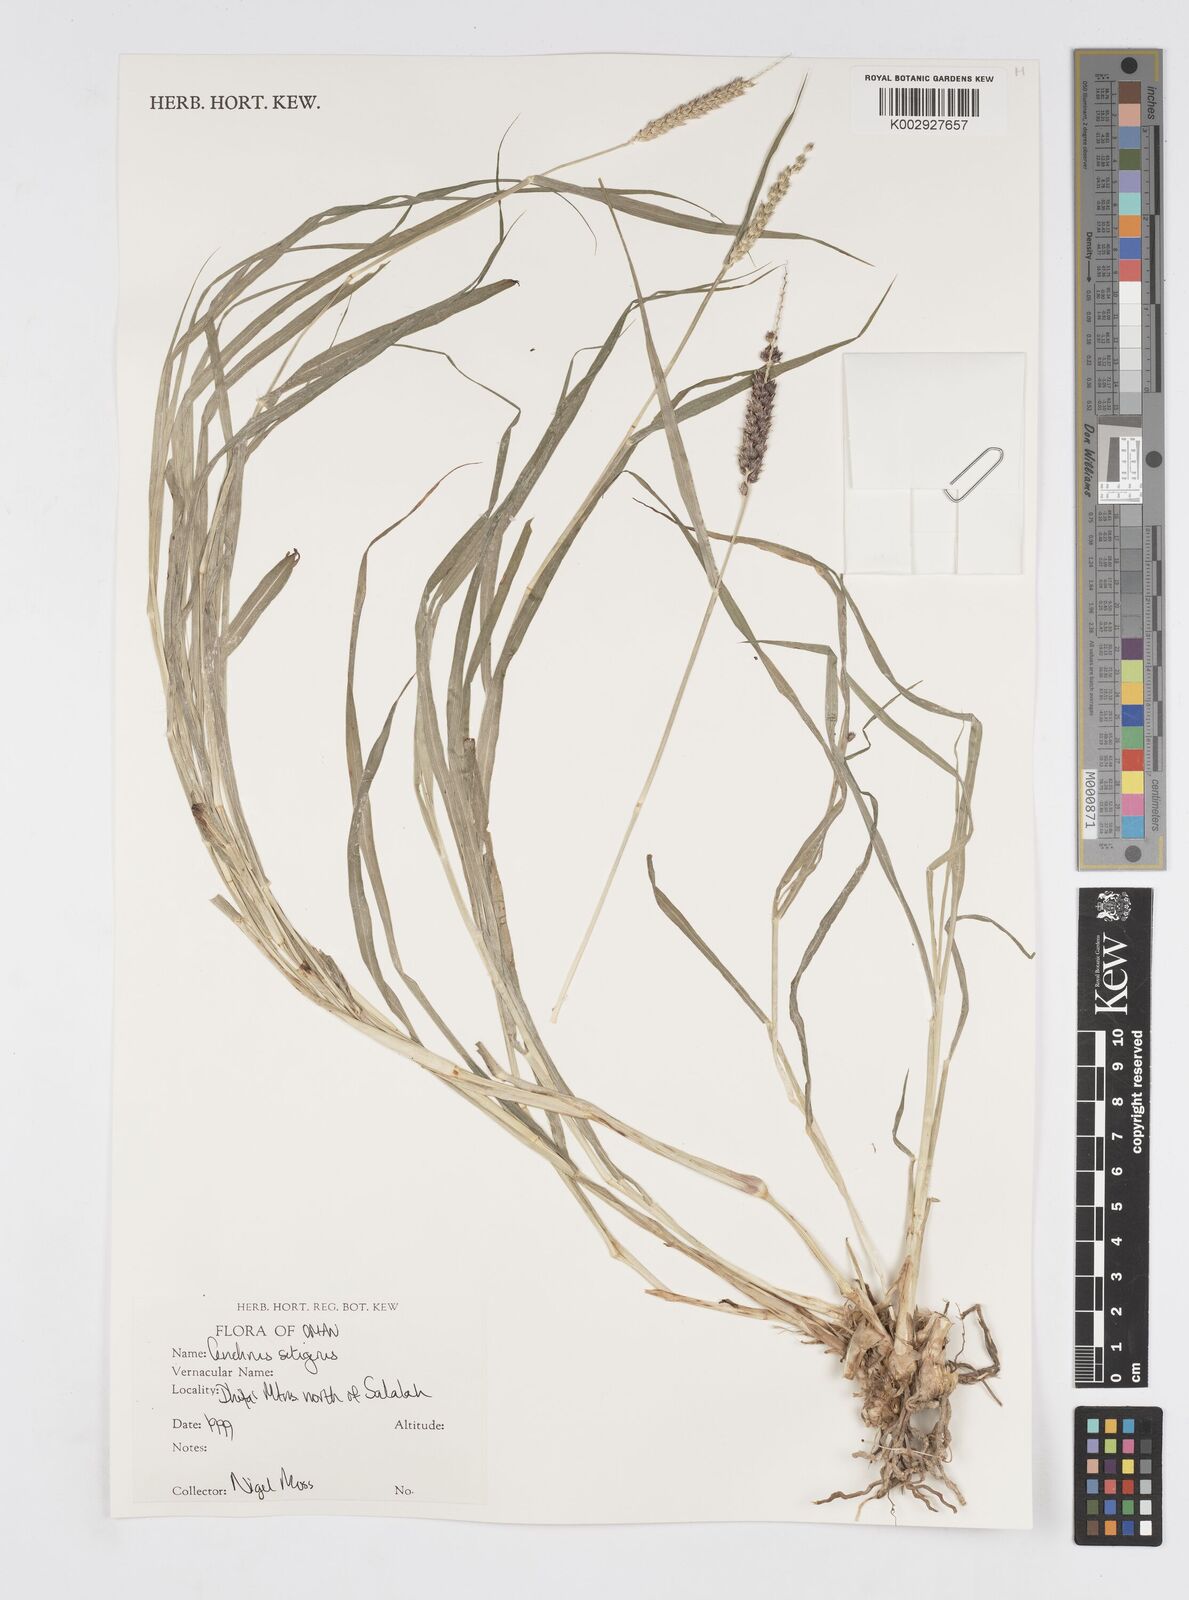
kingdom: Plantae
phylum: Tracheophyta
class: Liliopsida
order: Poales
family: Poaceae
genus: Cenchrus
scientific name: Cenchrus setigerus
